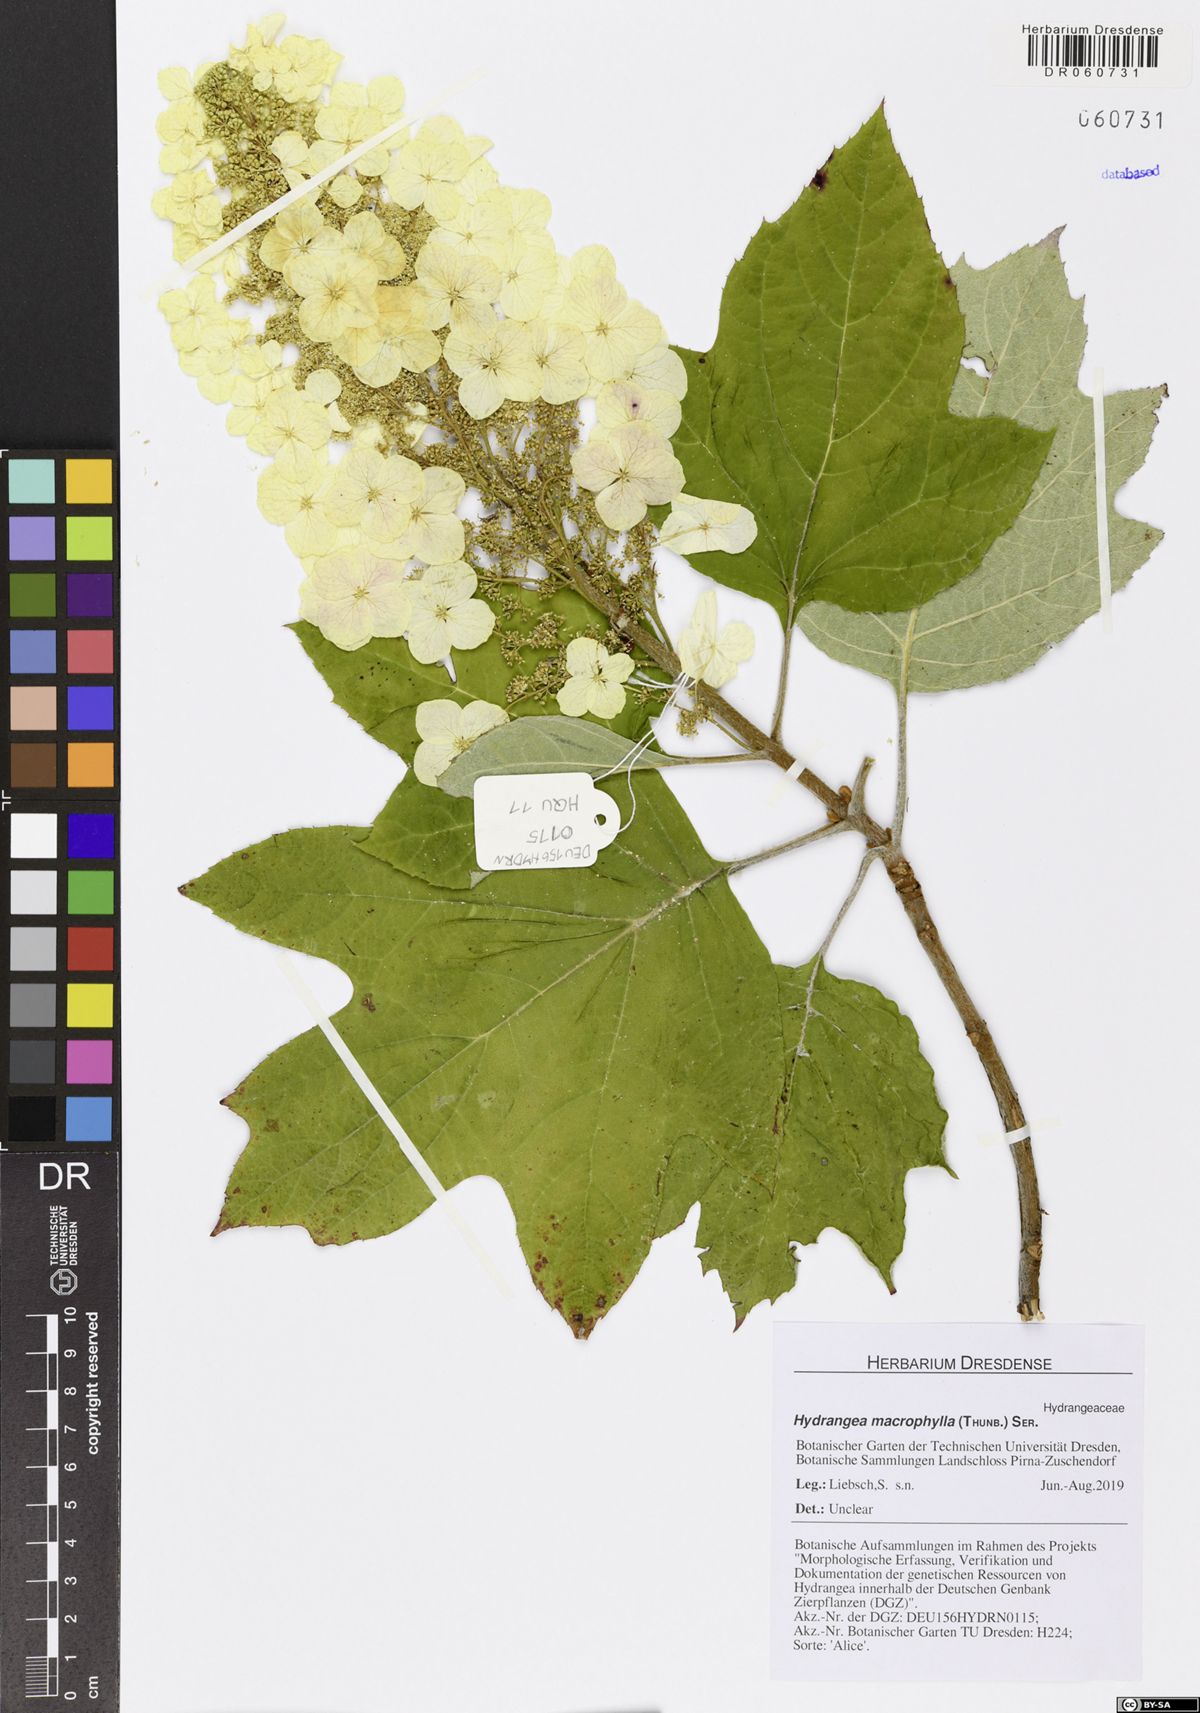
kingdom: Plantae
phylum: Tracheophyta
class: Magnoliopsida
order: Cornales
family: Hydrangeaceae
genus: Hydrangea
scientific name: Hydrangea macrophylla
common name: Hydrangea
